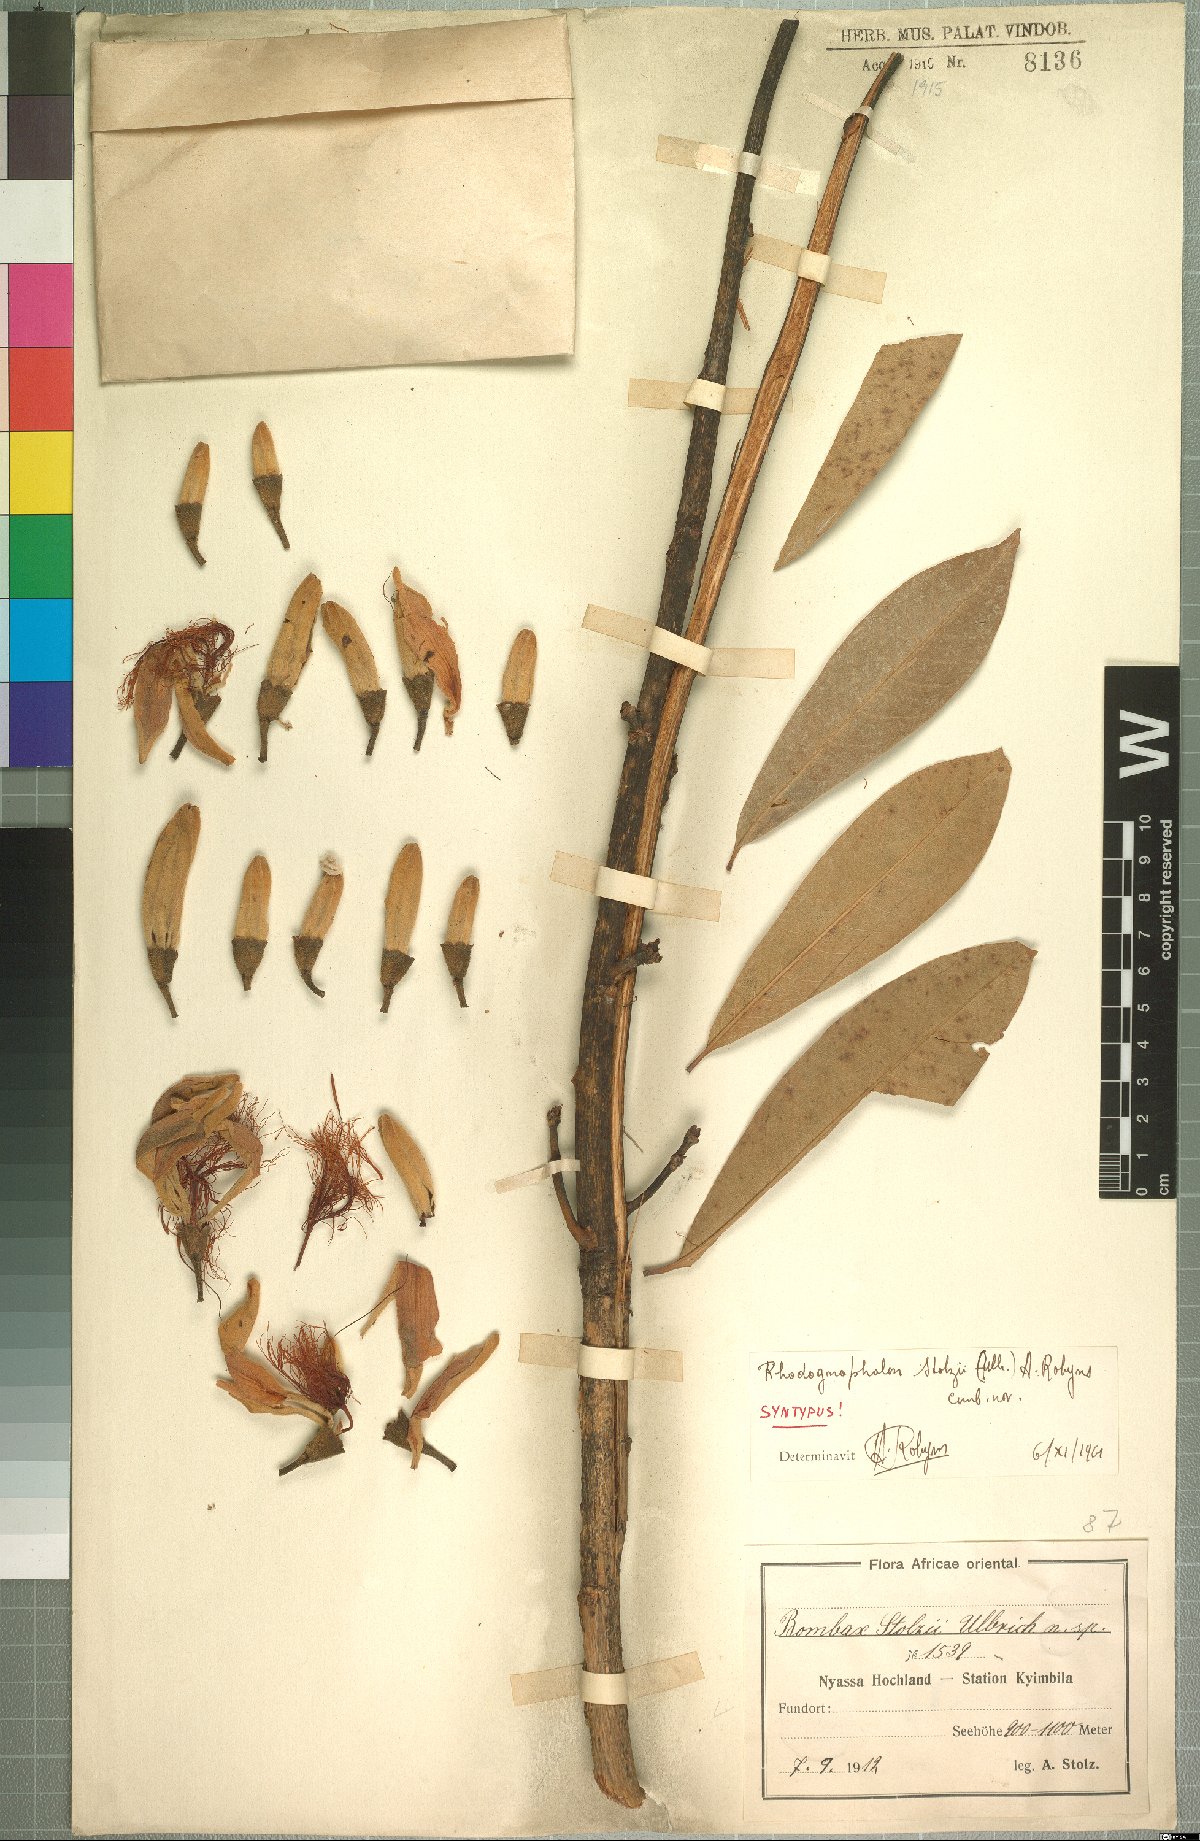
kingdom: Plantae
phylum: Tracheophyta
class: Magnoliopsida
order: Malvales
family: Malvaceae
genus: Rhodognaphalon
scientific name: Rhodognaphalon stolzii
